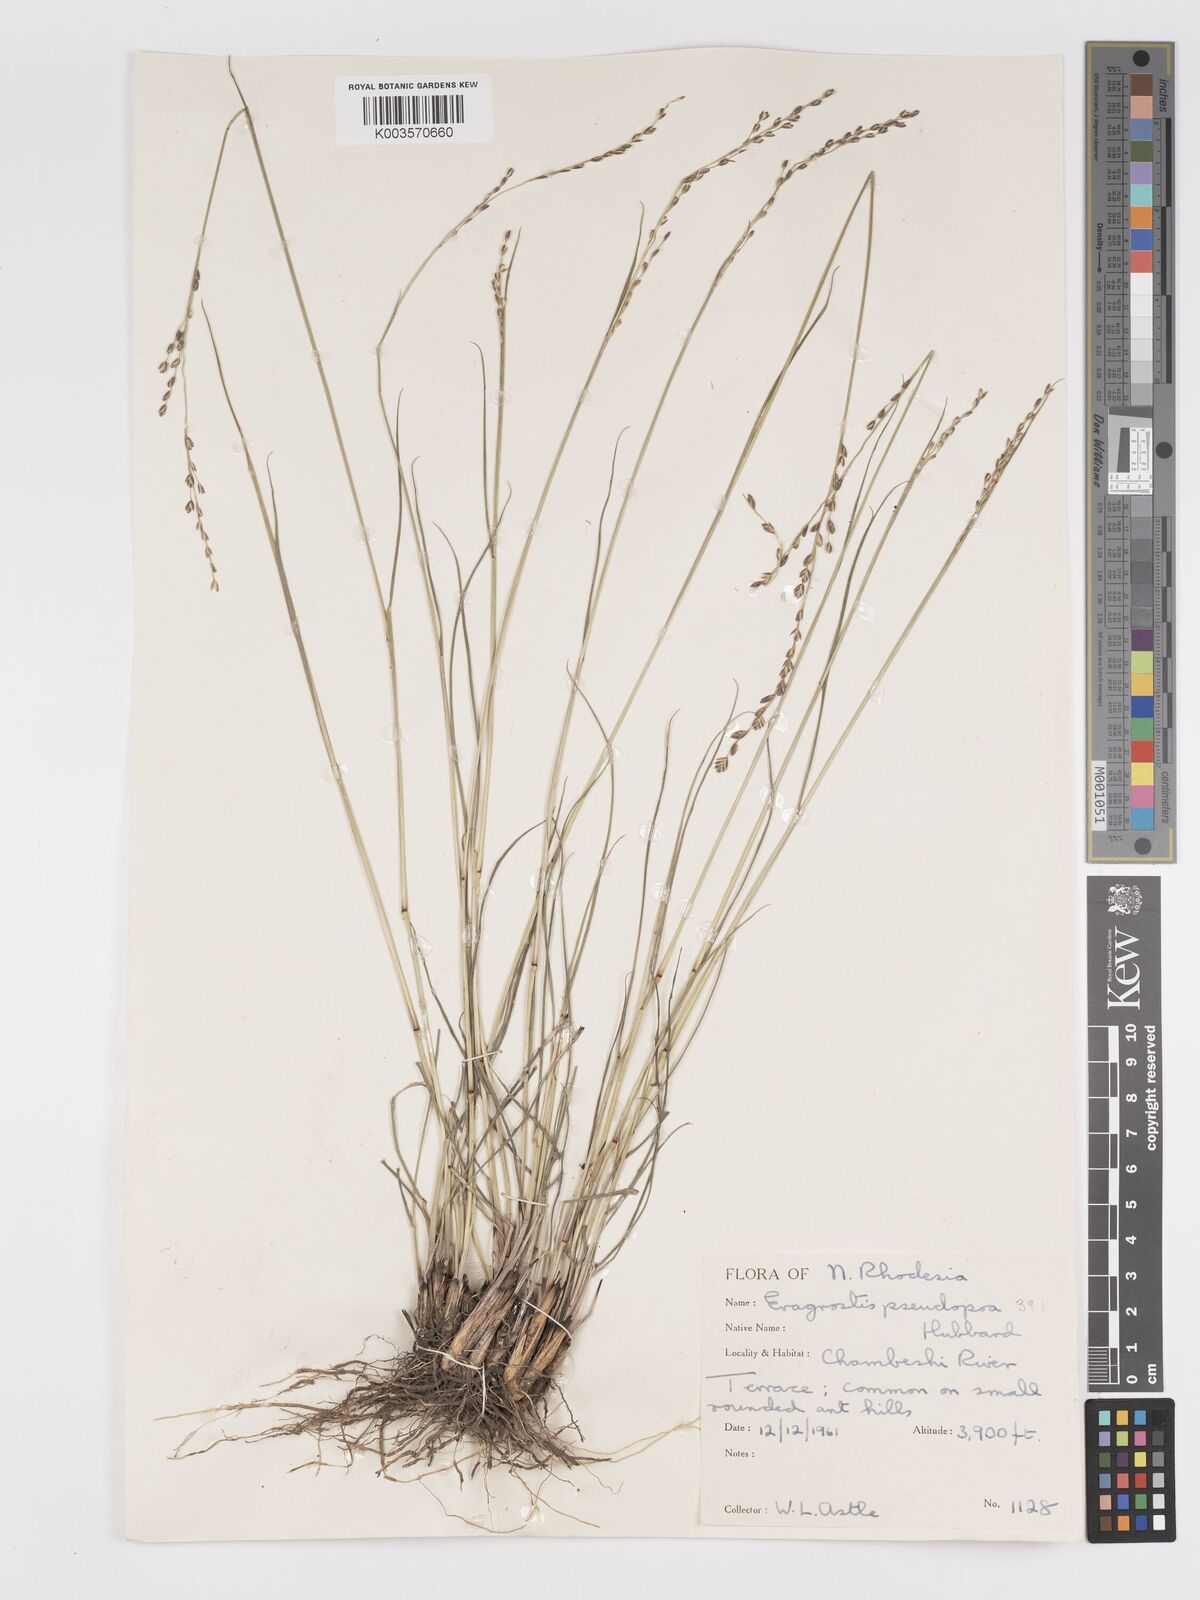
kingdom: Plantae
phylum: Tracheophyta
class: Liliopsida
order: Poales
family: Poaceae
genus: Eragrostis
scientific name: Eragrostis capensis
